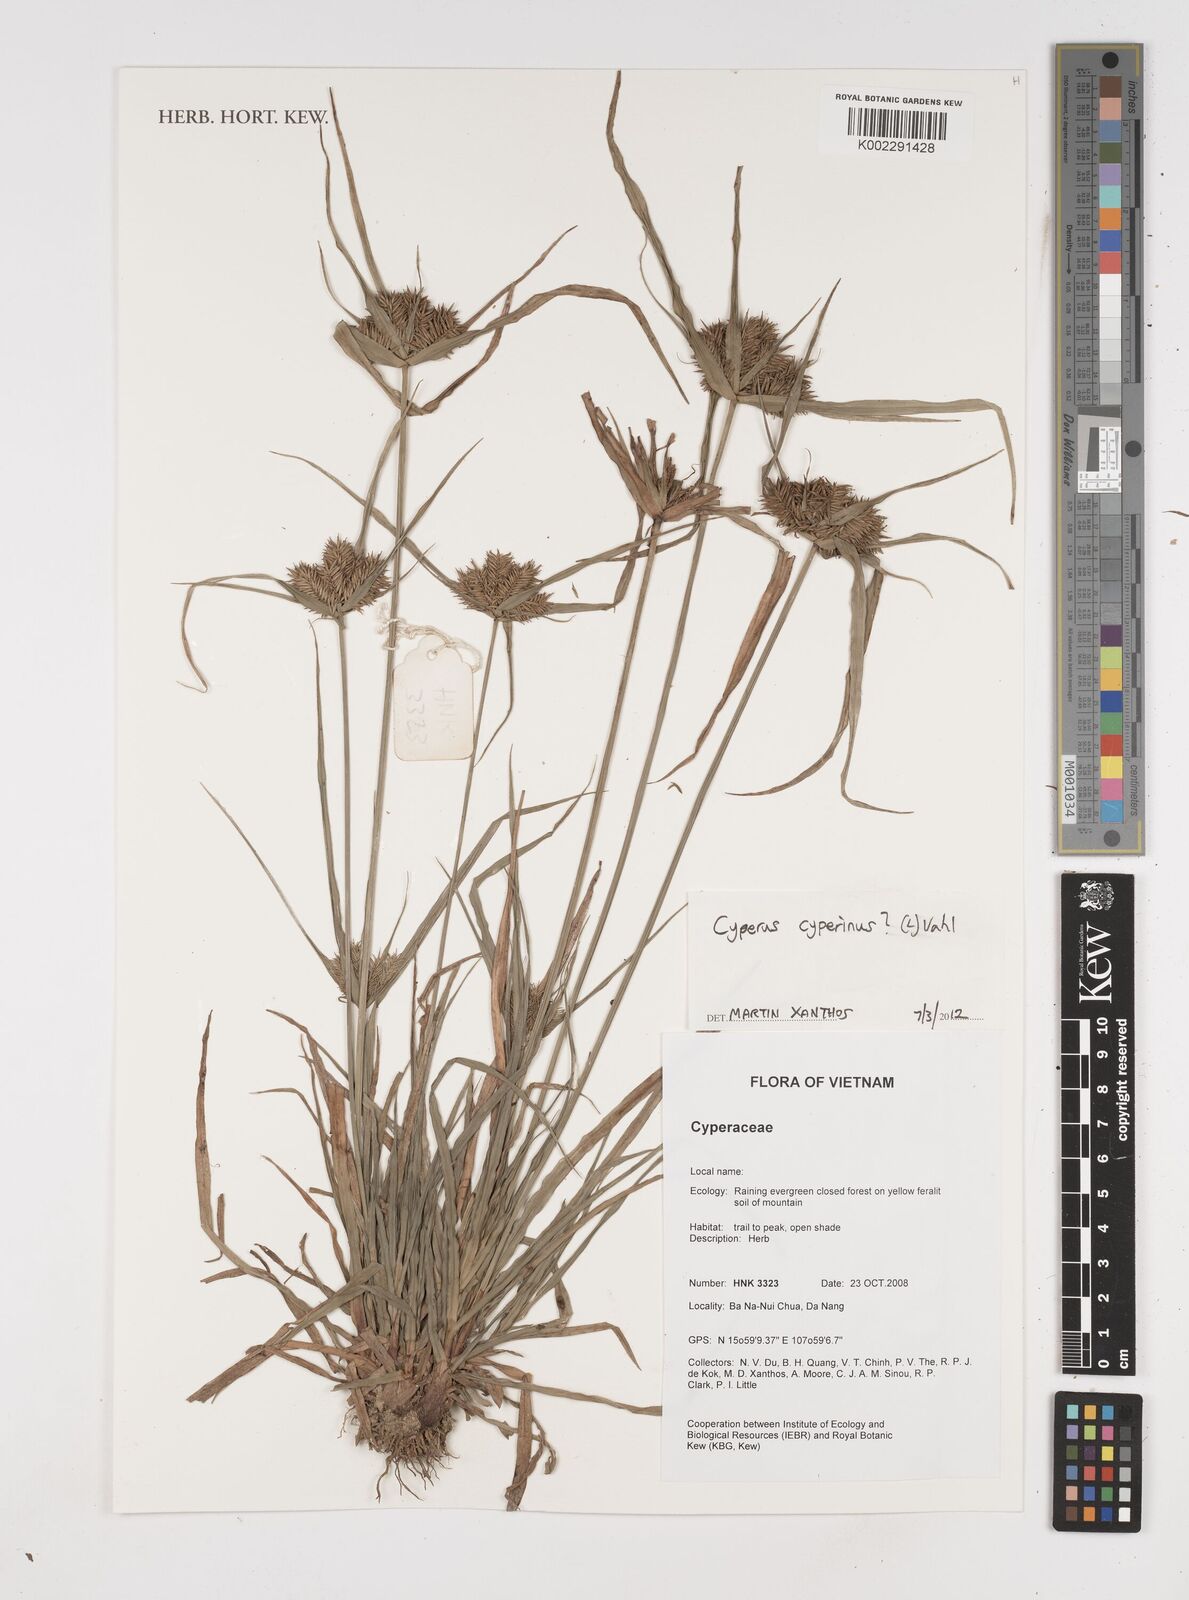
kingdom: Plantae
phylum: Tracheophyta
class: Liliopsida
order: Poales
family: Cyperaceae
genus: Cyperus
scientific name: Cyperus cyperinus
